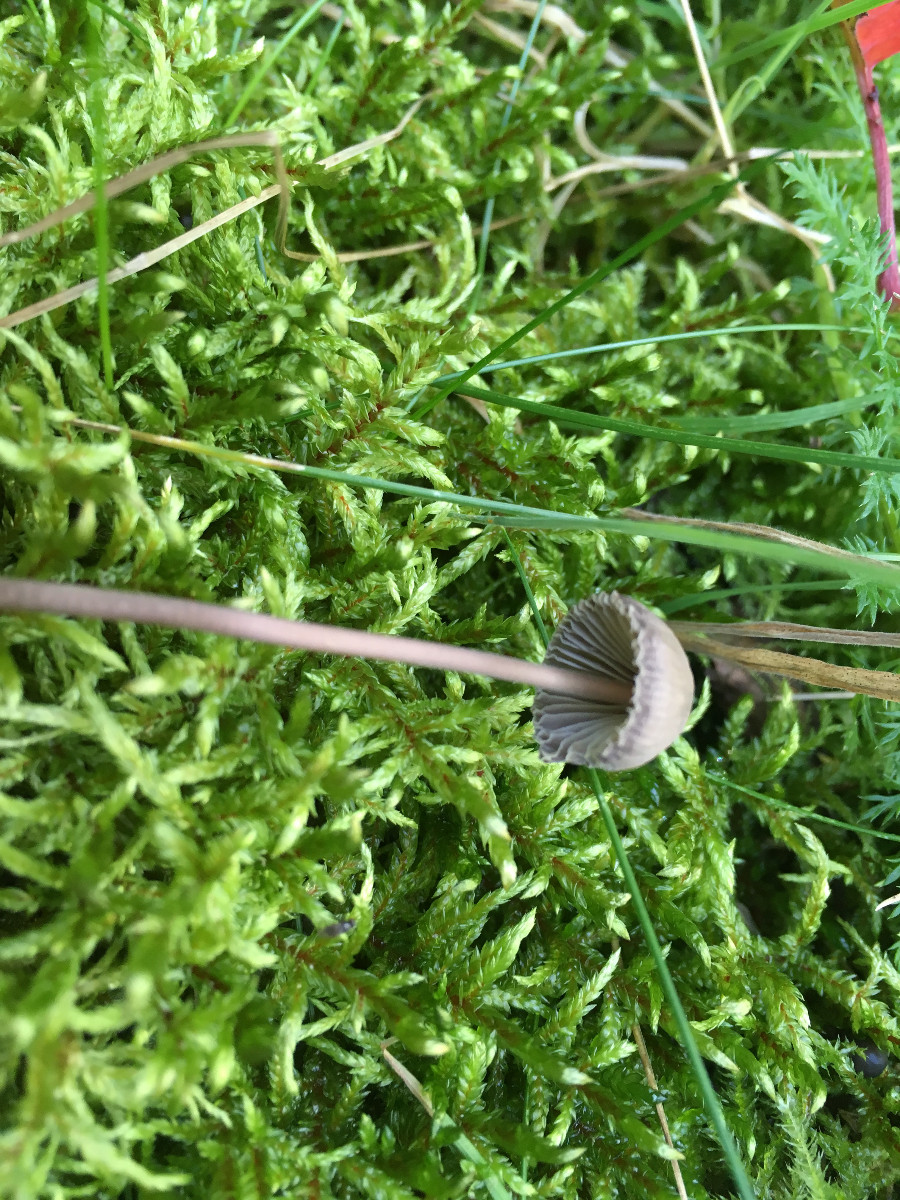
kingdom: Fungi
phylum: Basidiomycota
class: Agaricomycetes
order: Agaricales
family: Mycenaceae
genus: Mycena
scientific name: Mycena
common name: huesvamp
